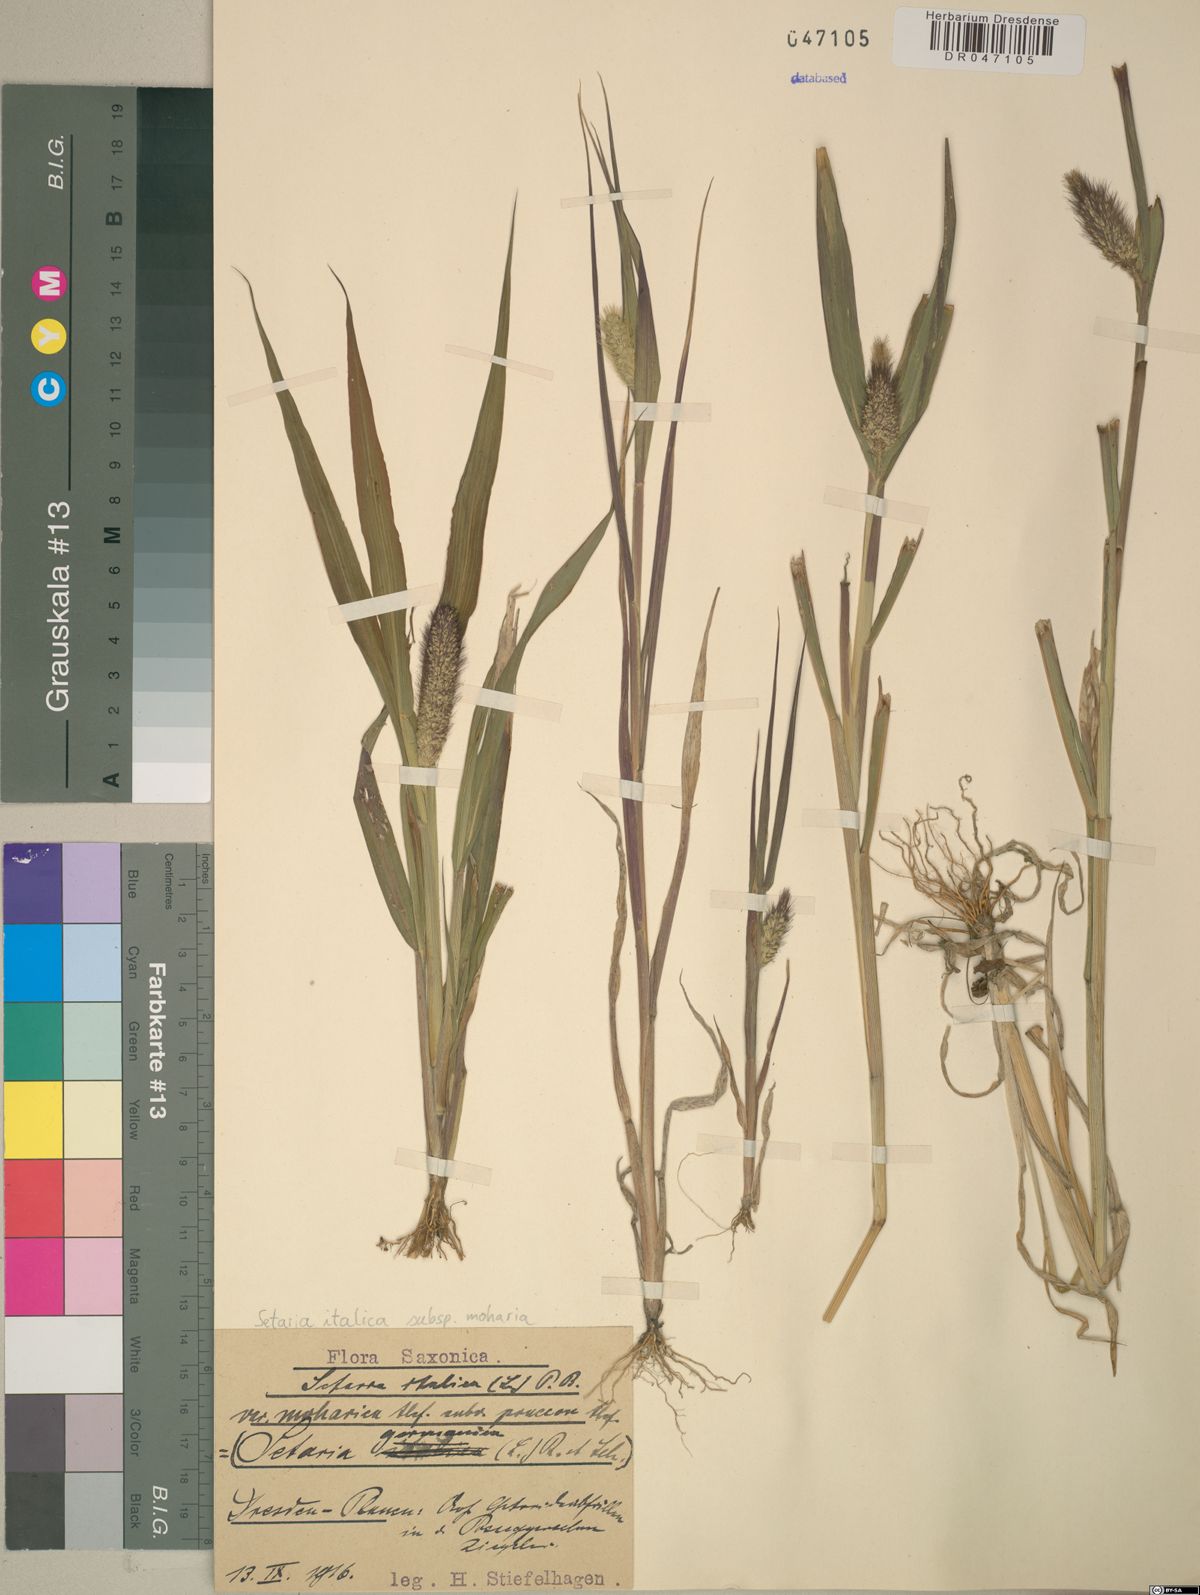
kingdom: Plantae
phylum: Tracheophyta
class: Liliopsida
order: Poales
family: Poaceae
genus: Setaria
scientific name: Setaria italica
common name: Foxtail bristle-grass
